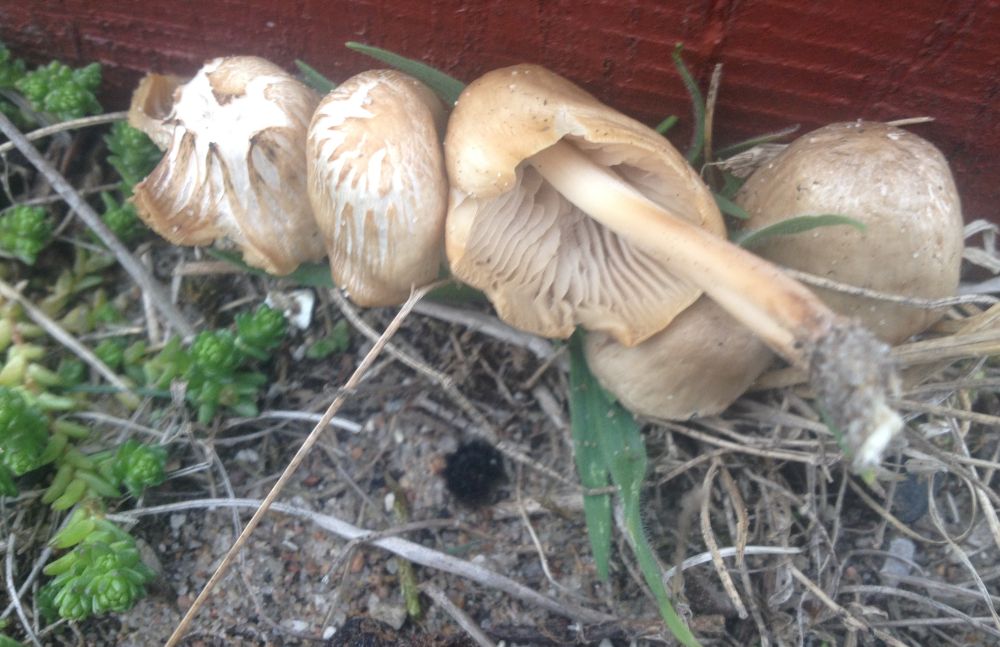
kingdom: Fungi
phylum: Basidiomycota
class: Agaricomycetes
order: Agaricales
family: Mycenaceae
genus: Mycena
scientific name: Mycena galericulata
